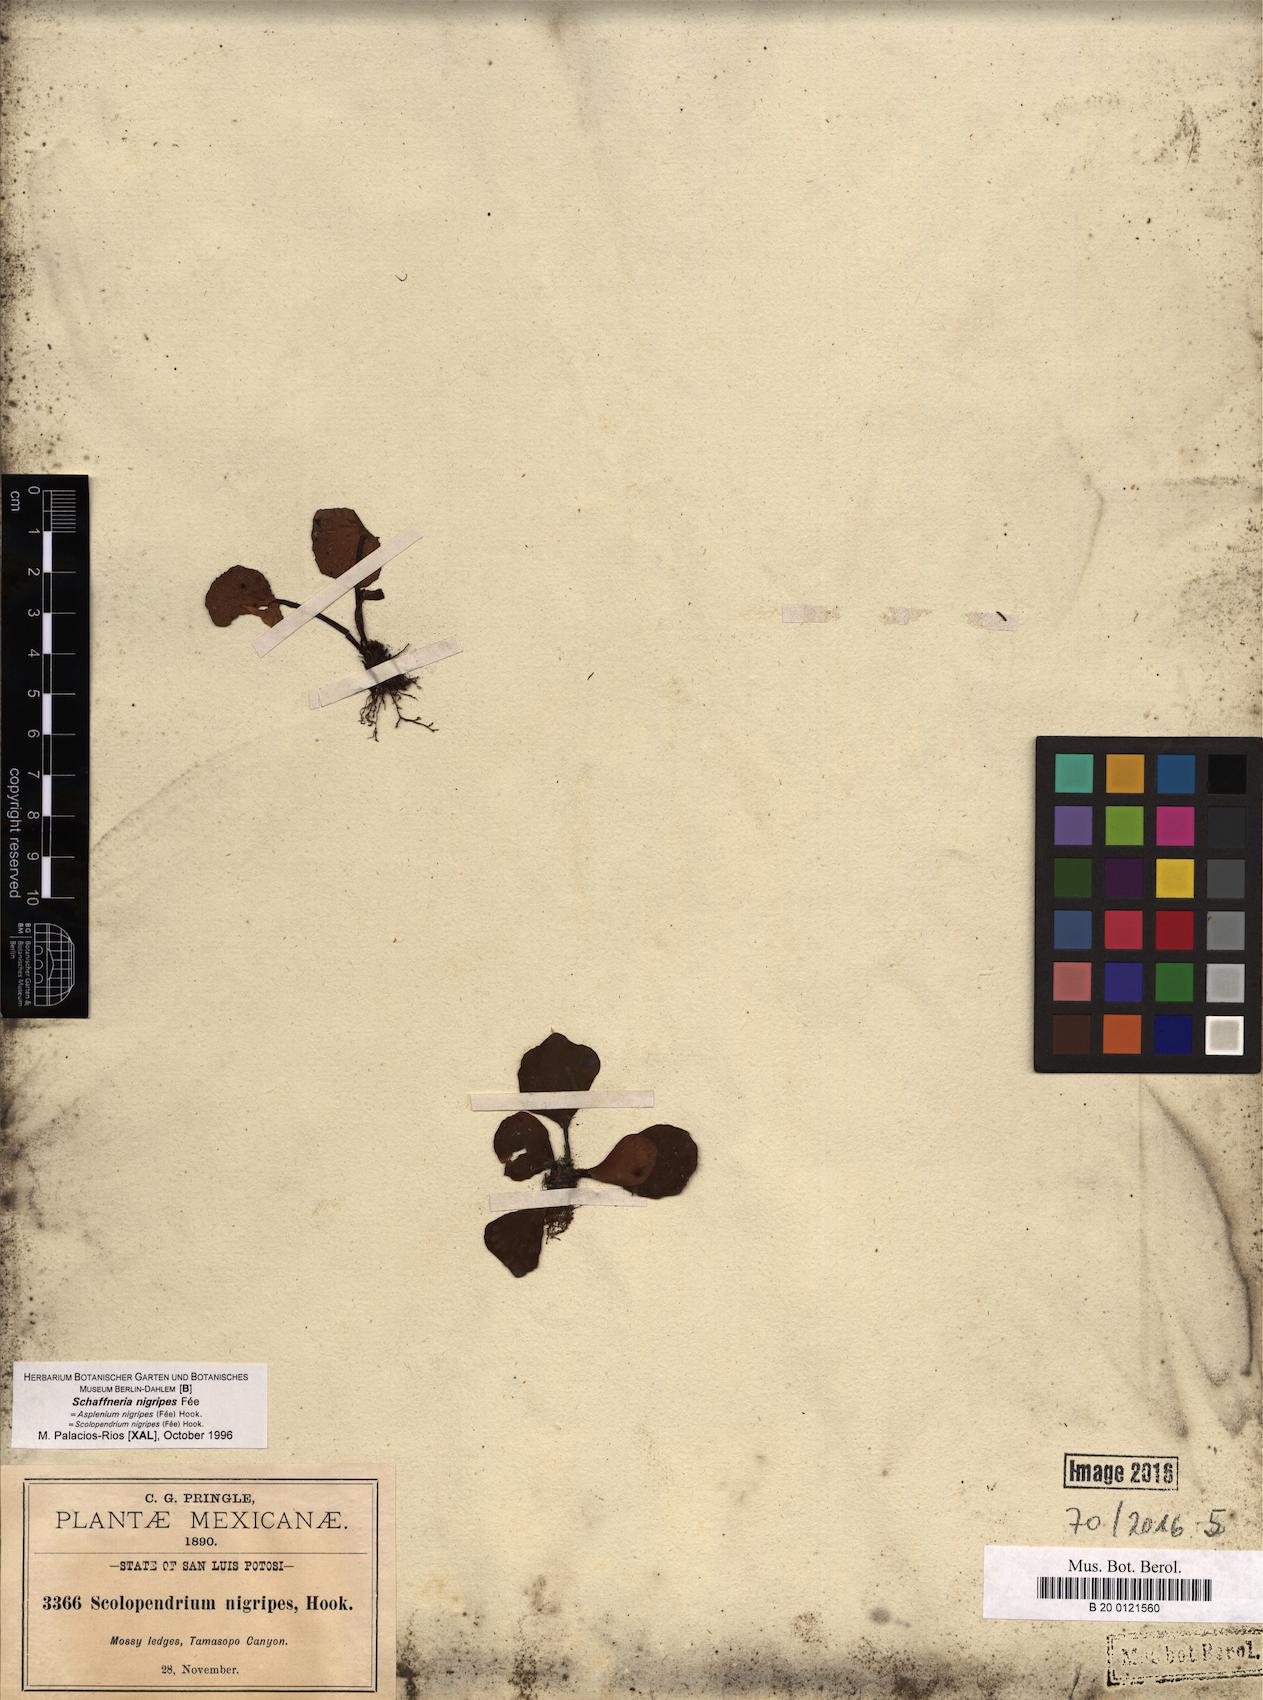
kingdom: Plantae
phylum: Tracheophyta
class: Polypodiopsida
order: Polypodiales
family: Aspleniaceae
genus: Asplenium
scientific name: Asplenium nigripes
